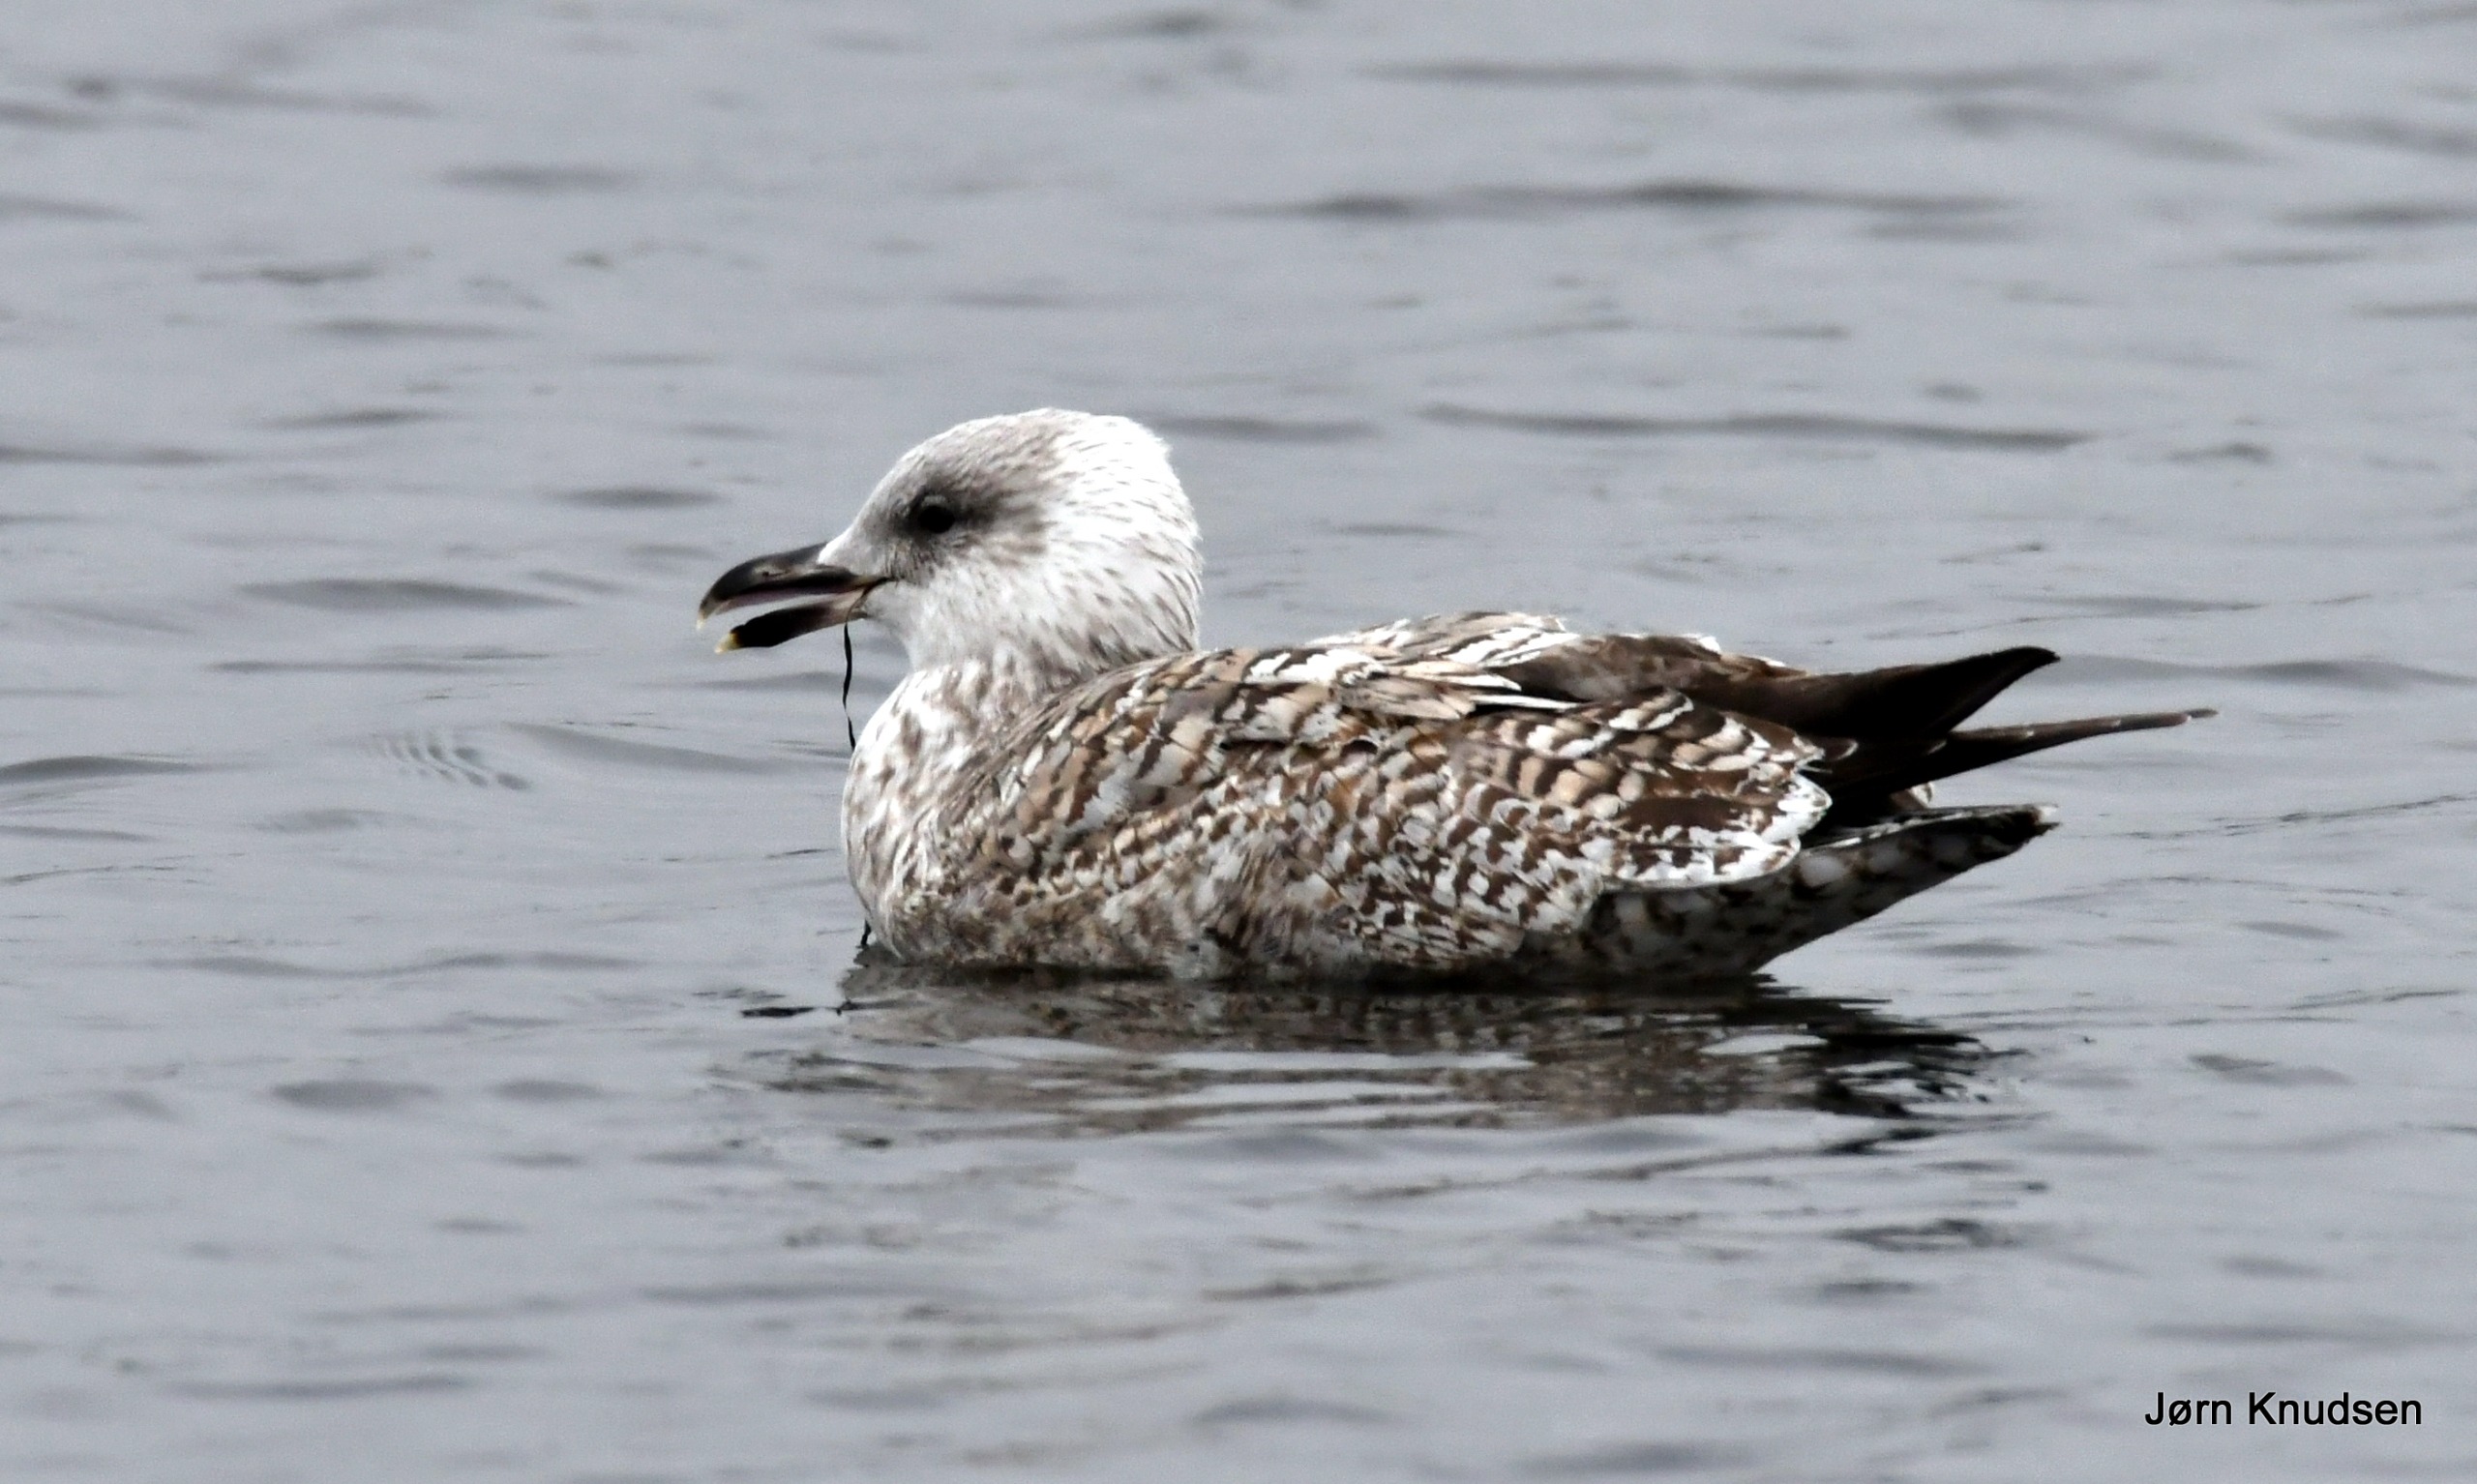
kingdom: Animalia
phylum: Chordata
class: Aves
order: Charadriiformes
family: Laridae
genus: Larus
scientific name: Larus argentatus
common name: Sølvmåge
